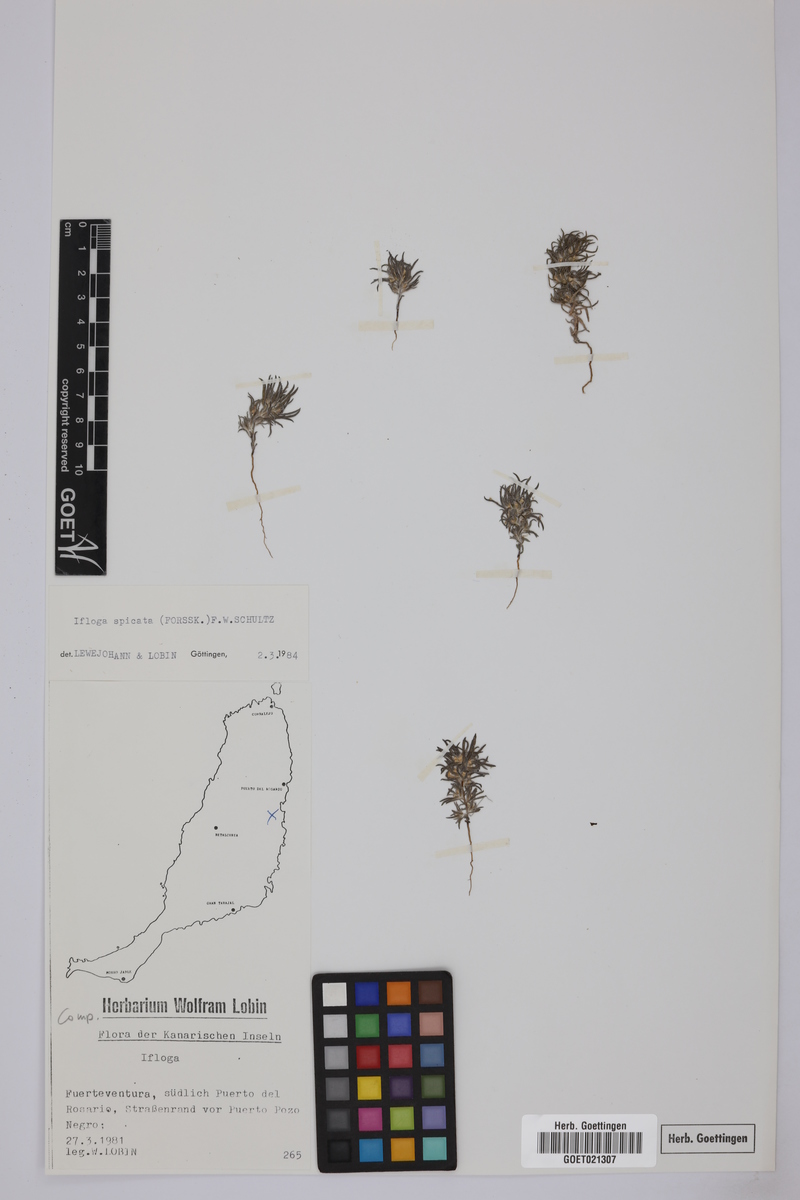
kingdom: Plantae
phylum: Tracheophyta
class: Magnoliopsida
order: Asterales
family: Asteraceae
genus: Ifloga
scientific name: Ifloga spicata
